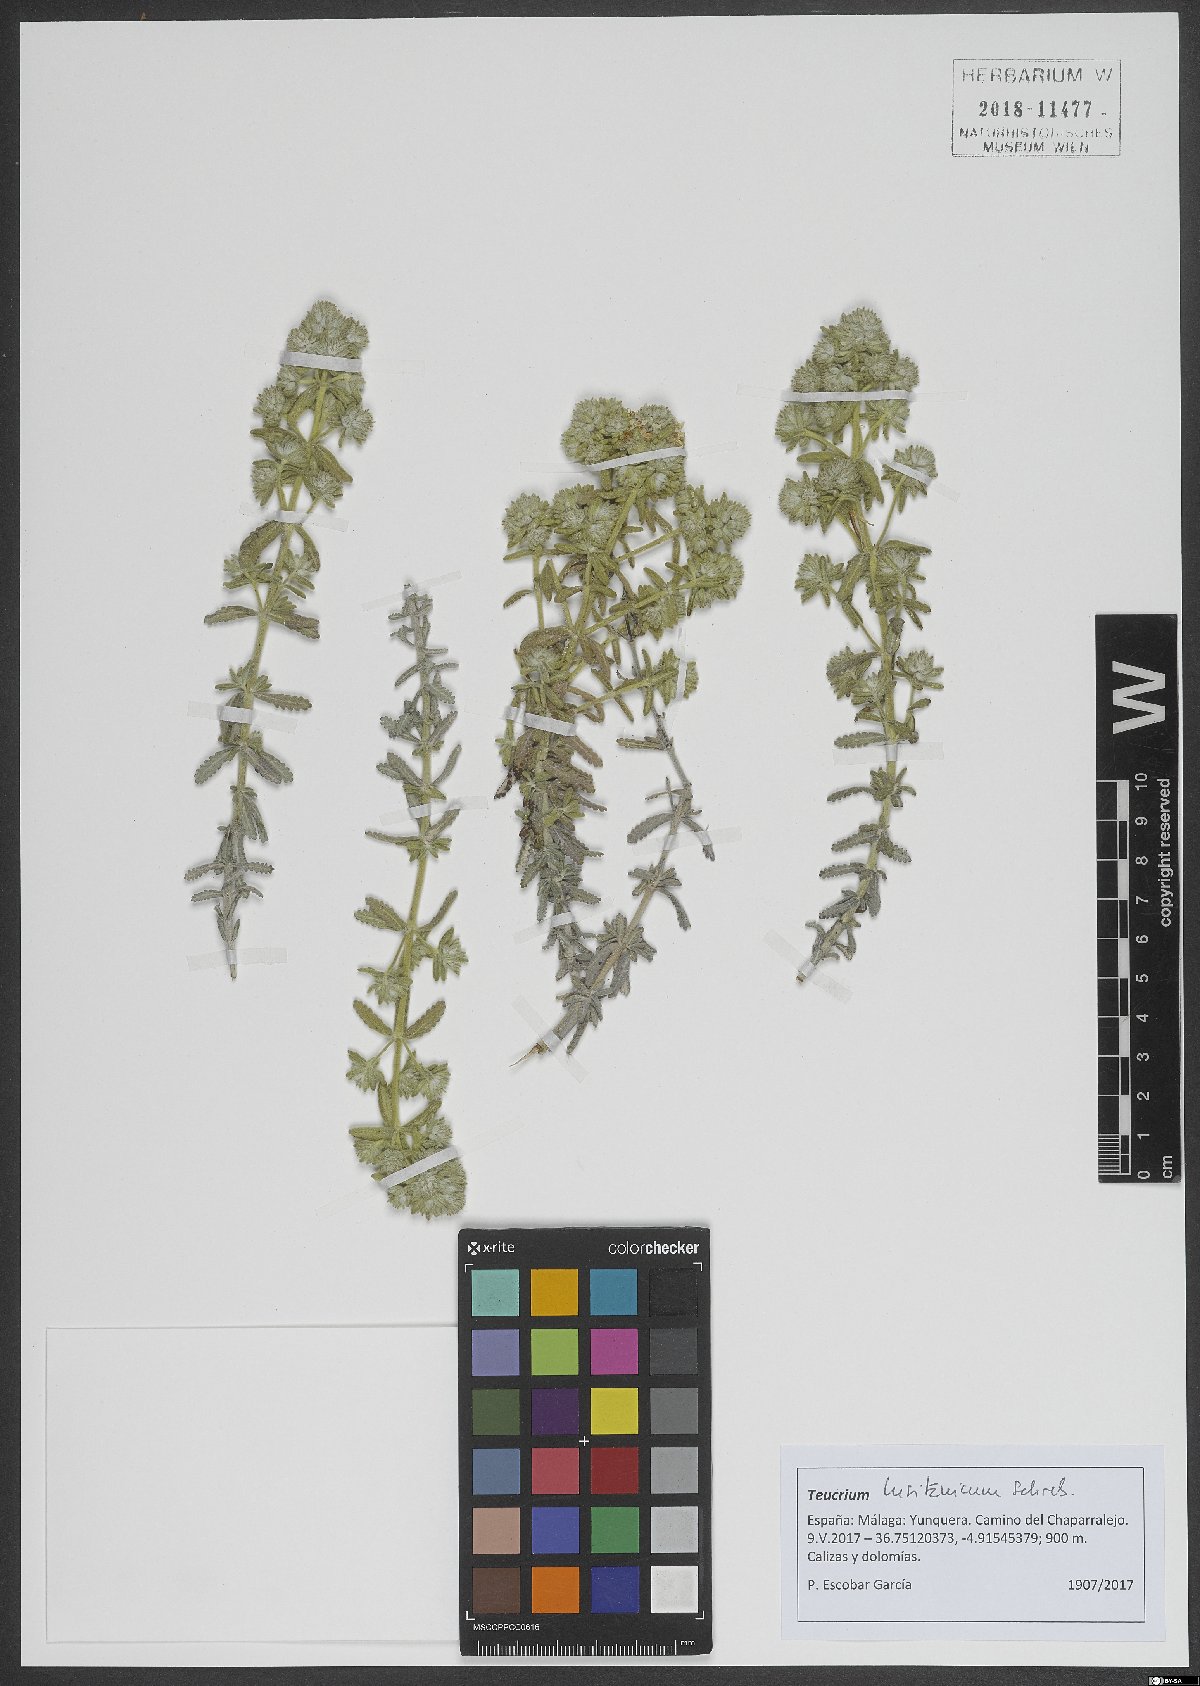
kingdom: Plantae
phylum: Tracheophyta
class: Magnoliopsida
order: Lamiales
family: Lamiaceae
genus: Teucrium
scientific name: Teucrium lusitanicum
